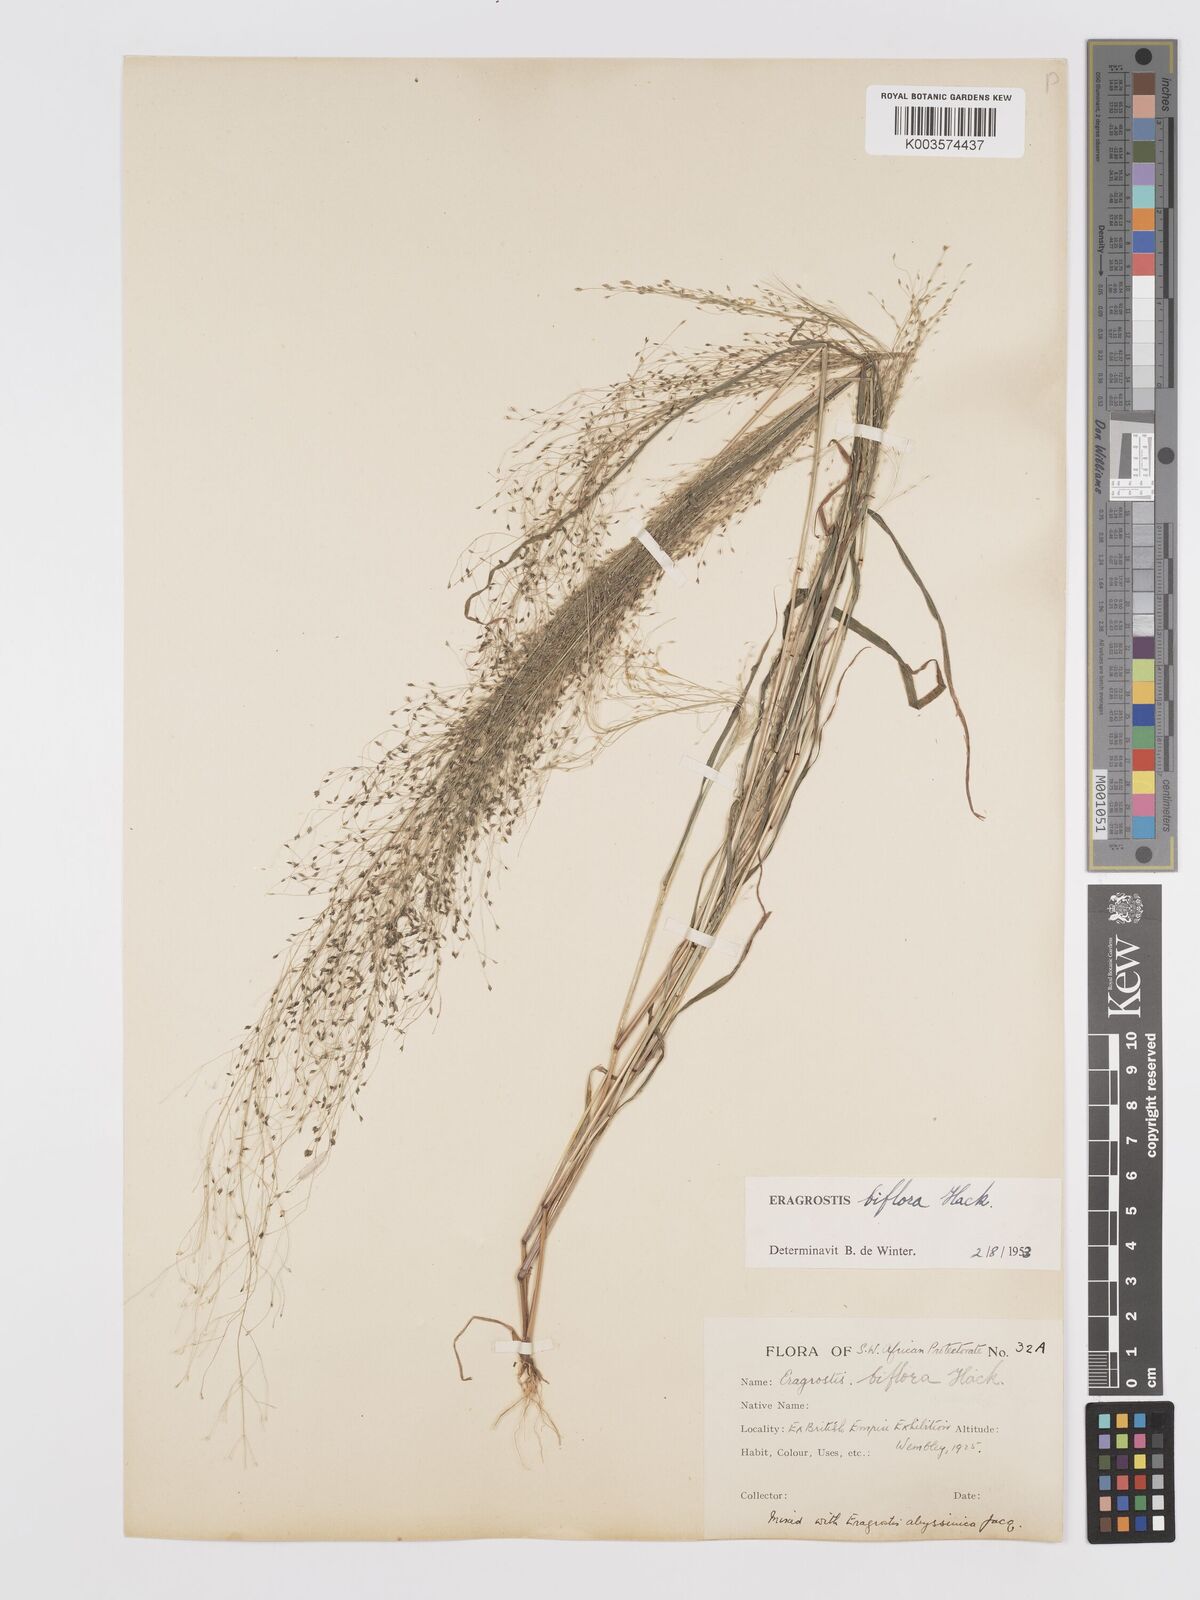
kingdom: Plantae
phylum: Tracheophyta
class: Liliopsida
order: Poales
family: Poaceae
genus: Eragrostis
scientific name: Eragrostis biflora
